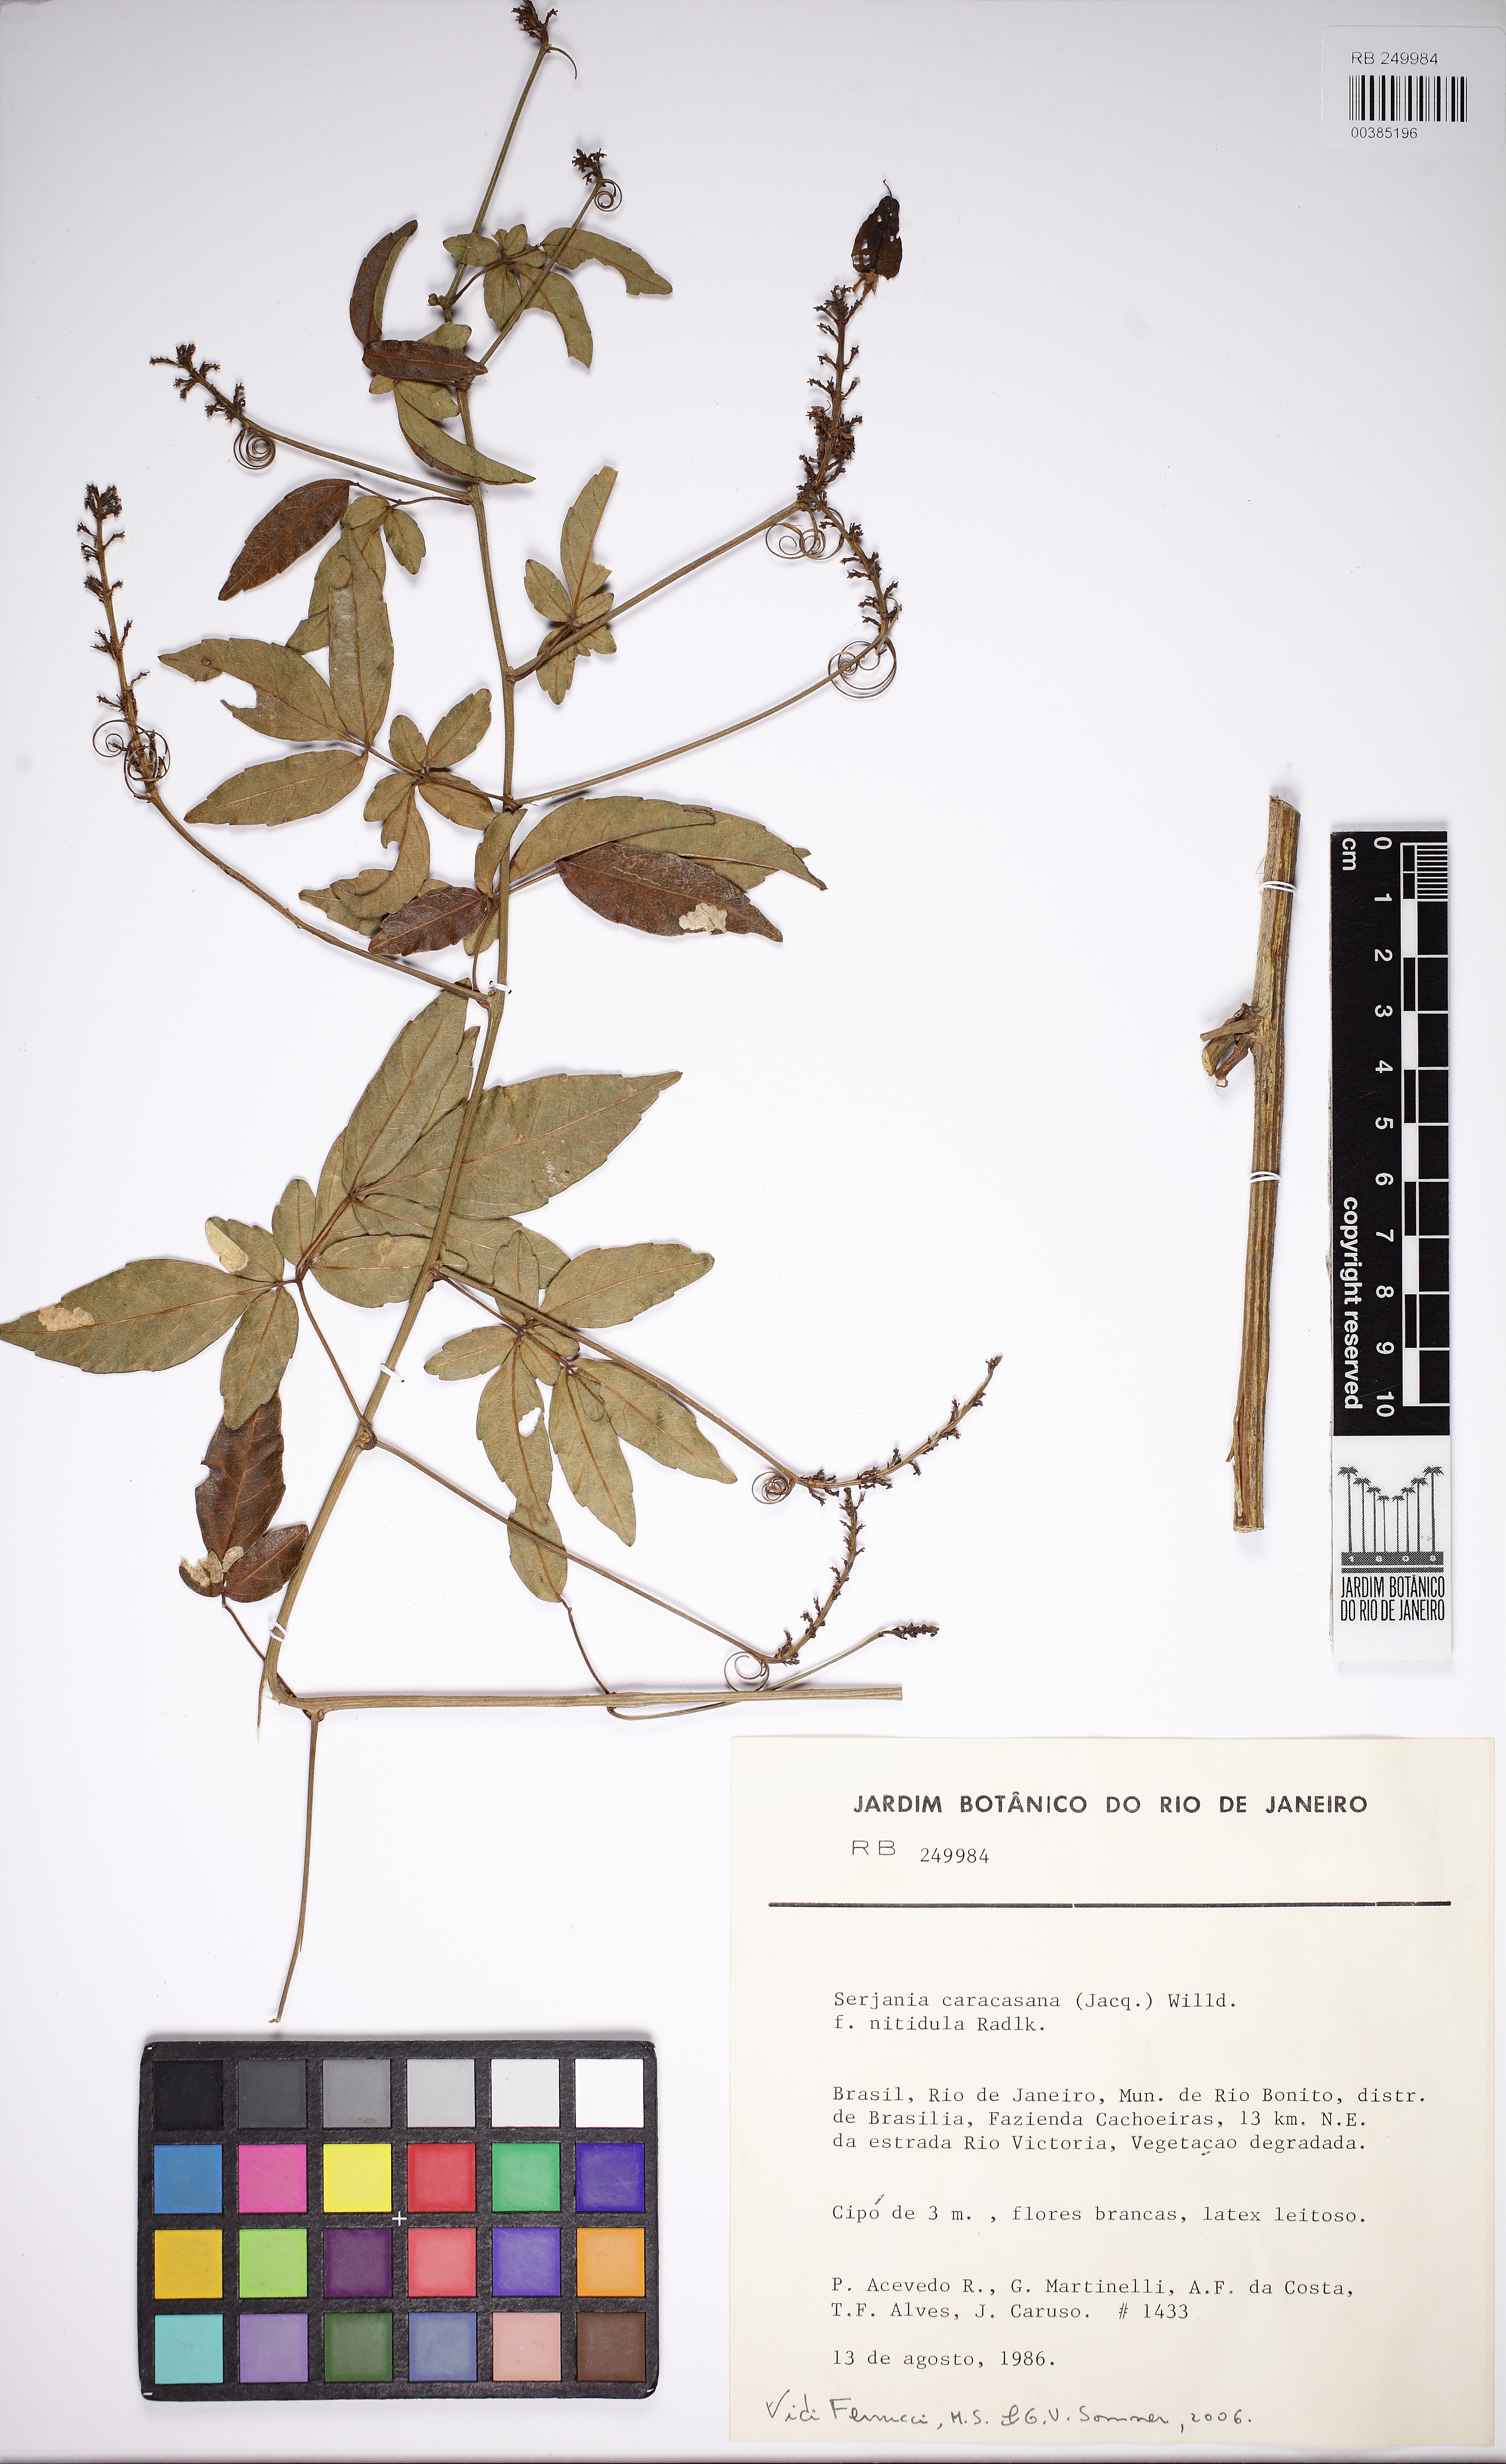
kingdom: Plantae
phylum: Tracheophyta
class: Magnoliopsida
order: Sapindales
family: Sapindaceae
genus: Serjania
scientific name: Serjania caracasana
